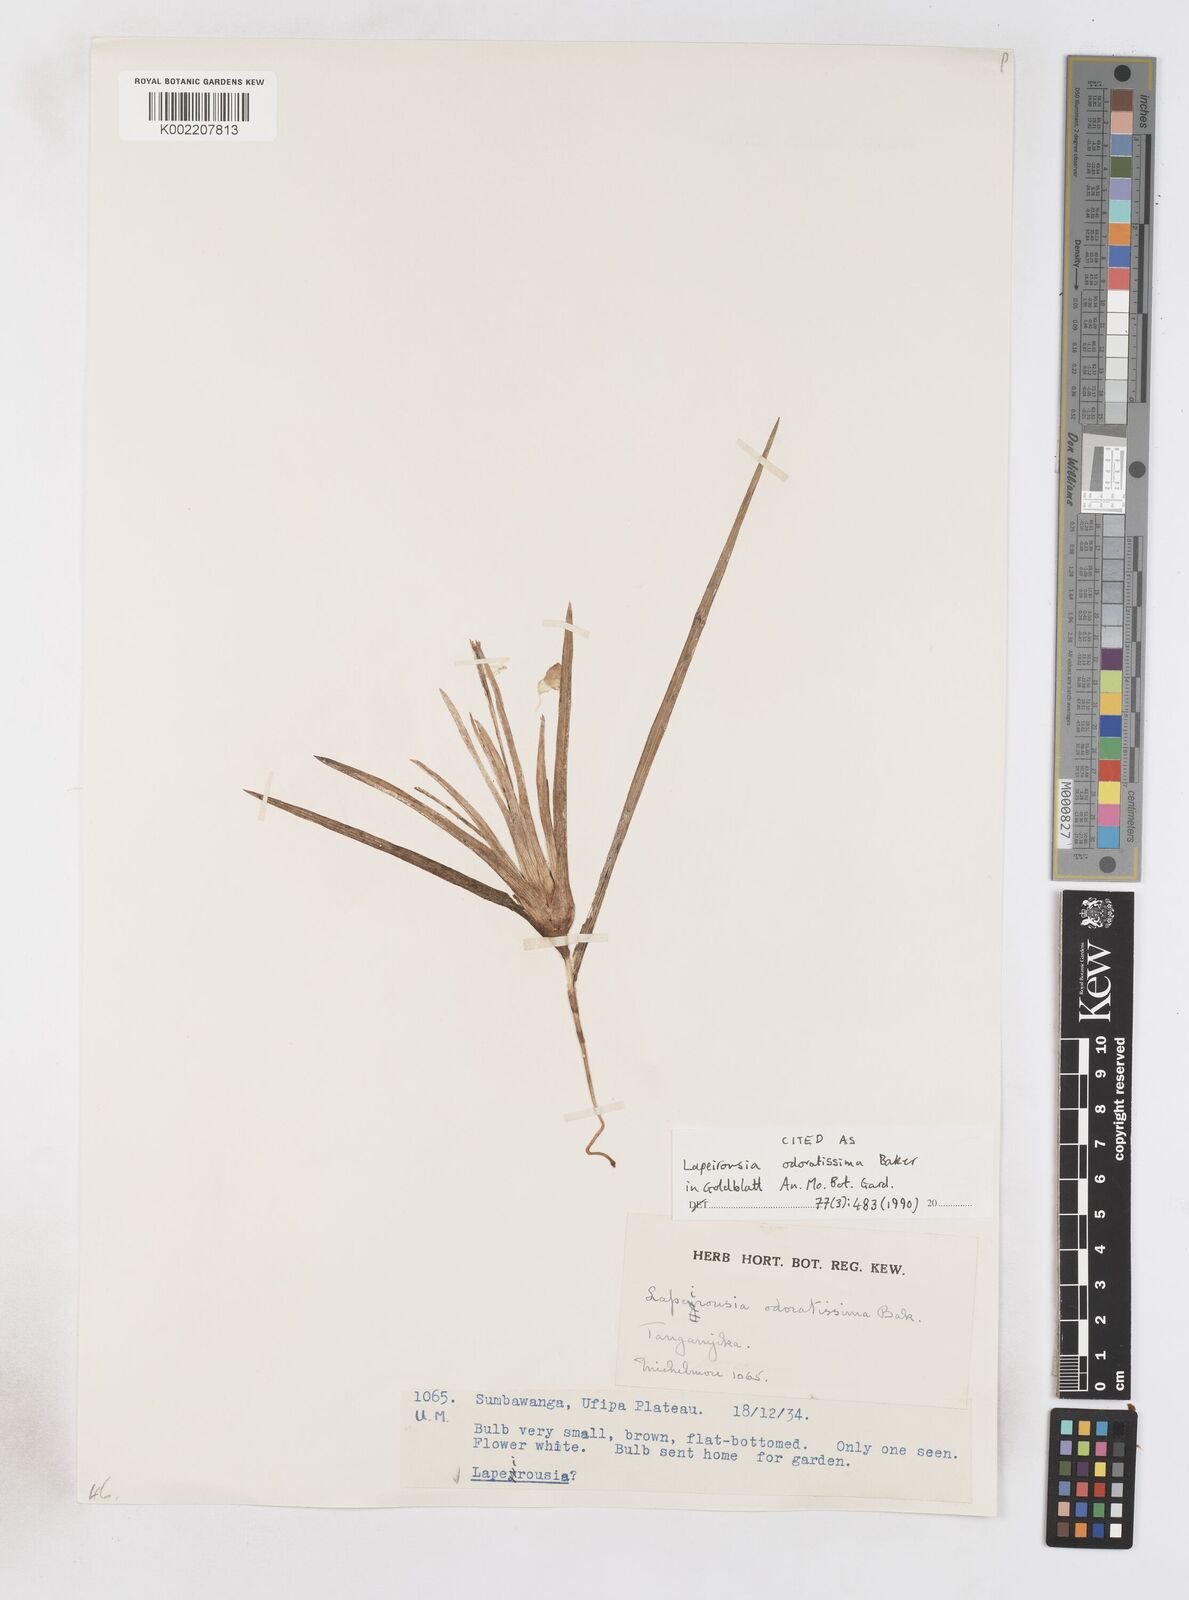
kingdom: Plantae
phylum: Tracheophyta
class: Liliopsida
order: Asparagales
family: Iridaceae
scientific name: Iridaceae
